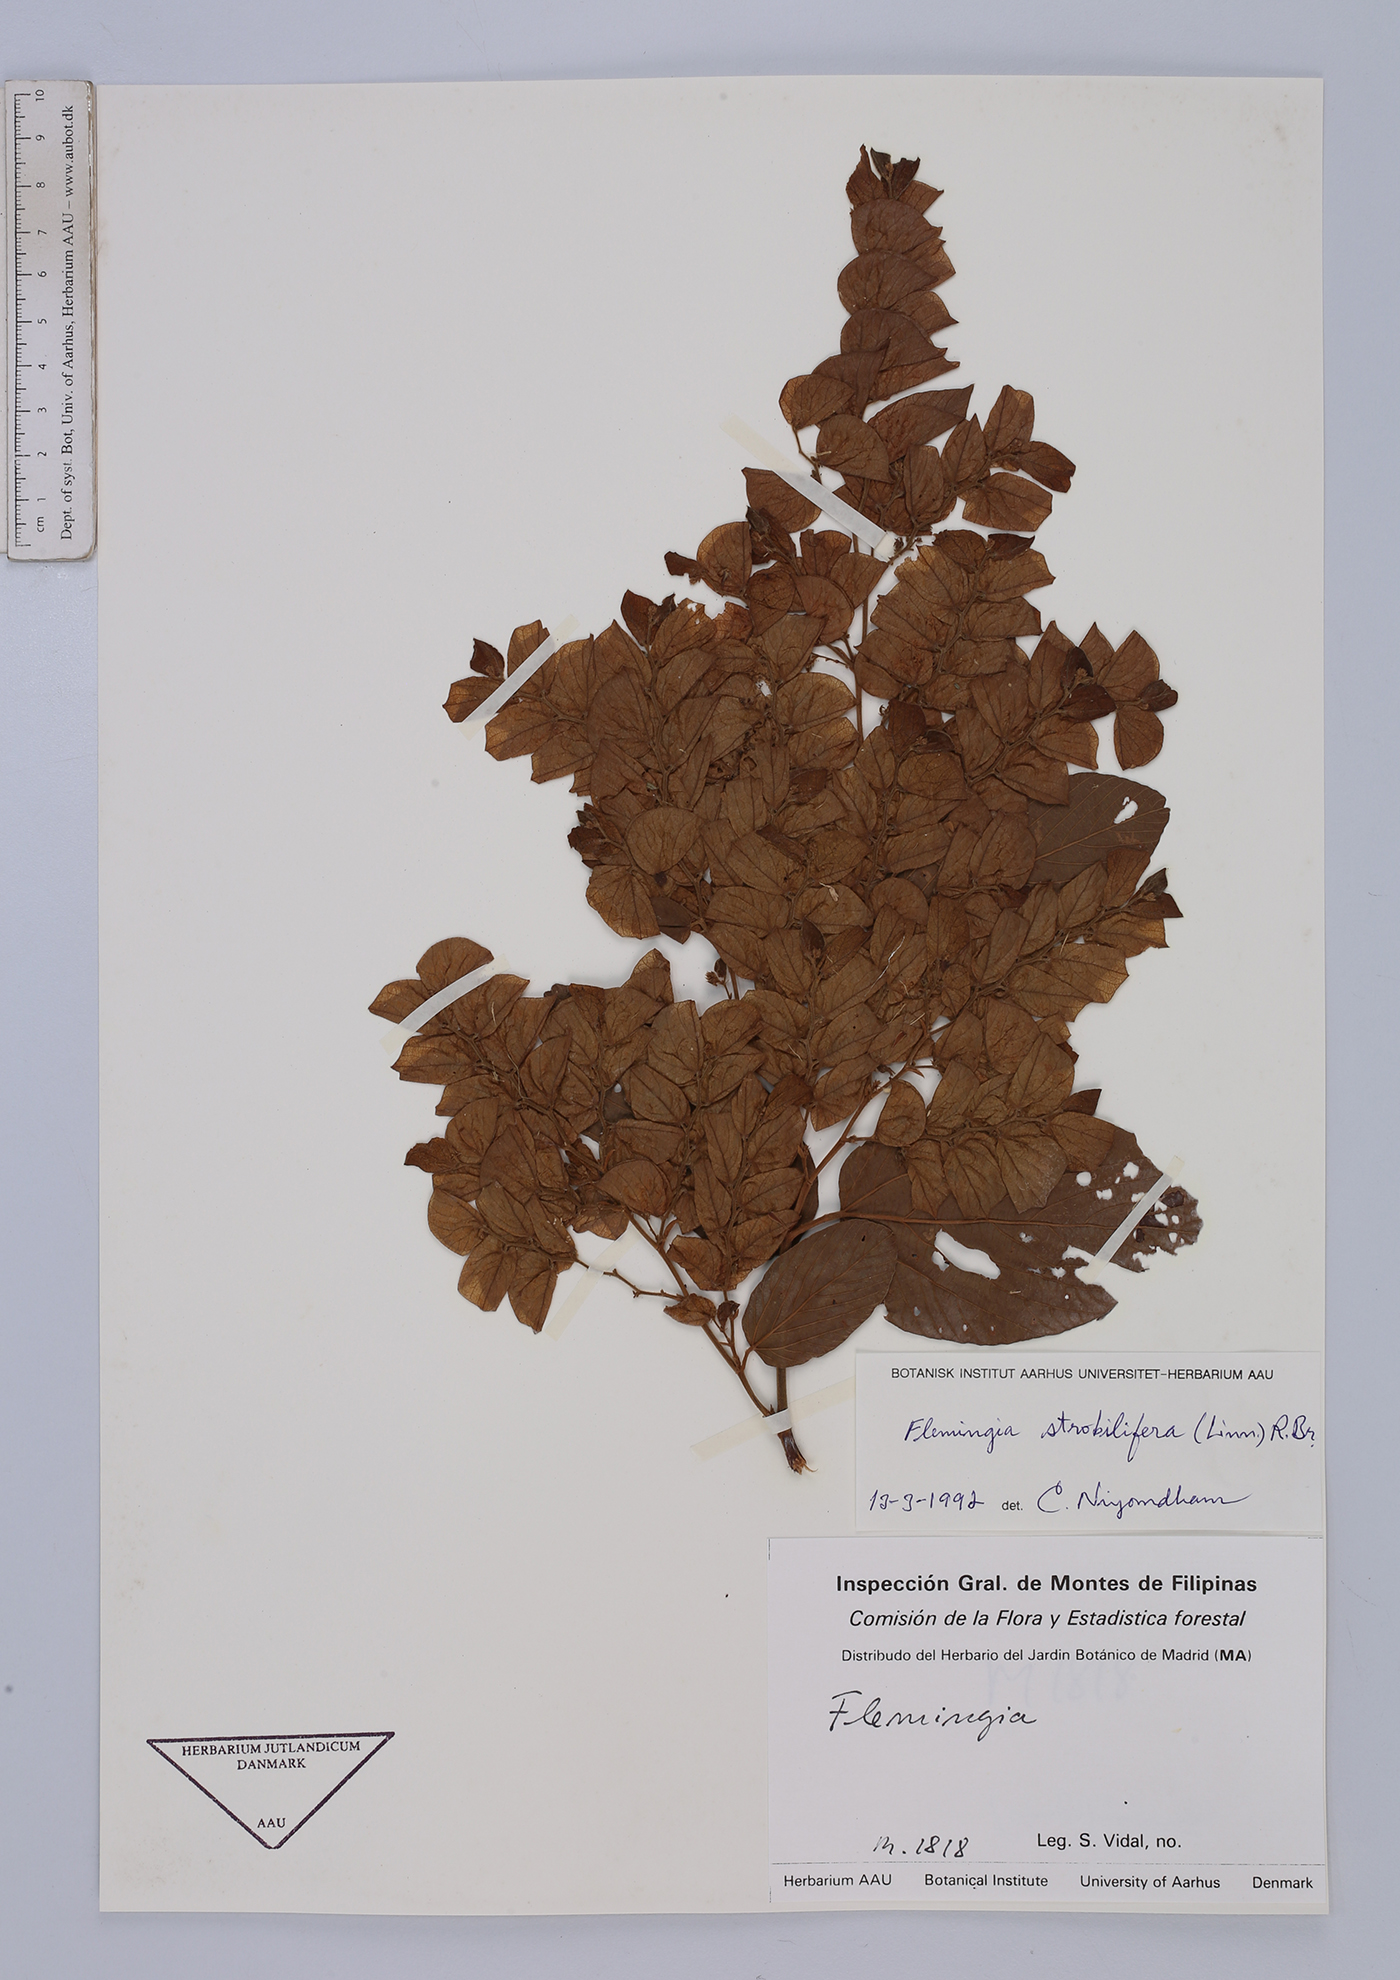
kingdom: Plantae
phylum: Tracheophyta
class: Magnoliopsida
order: Fabales
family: Fabaceae
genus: Flemingia
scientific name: Flemingia strobilifera
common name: Wild hops
